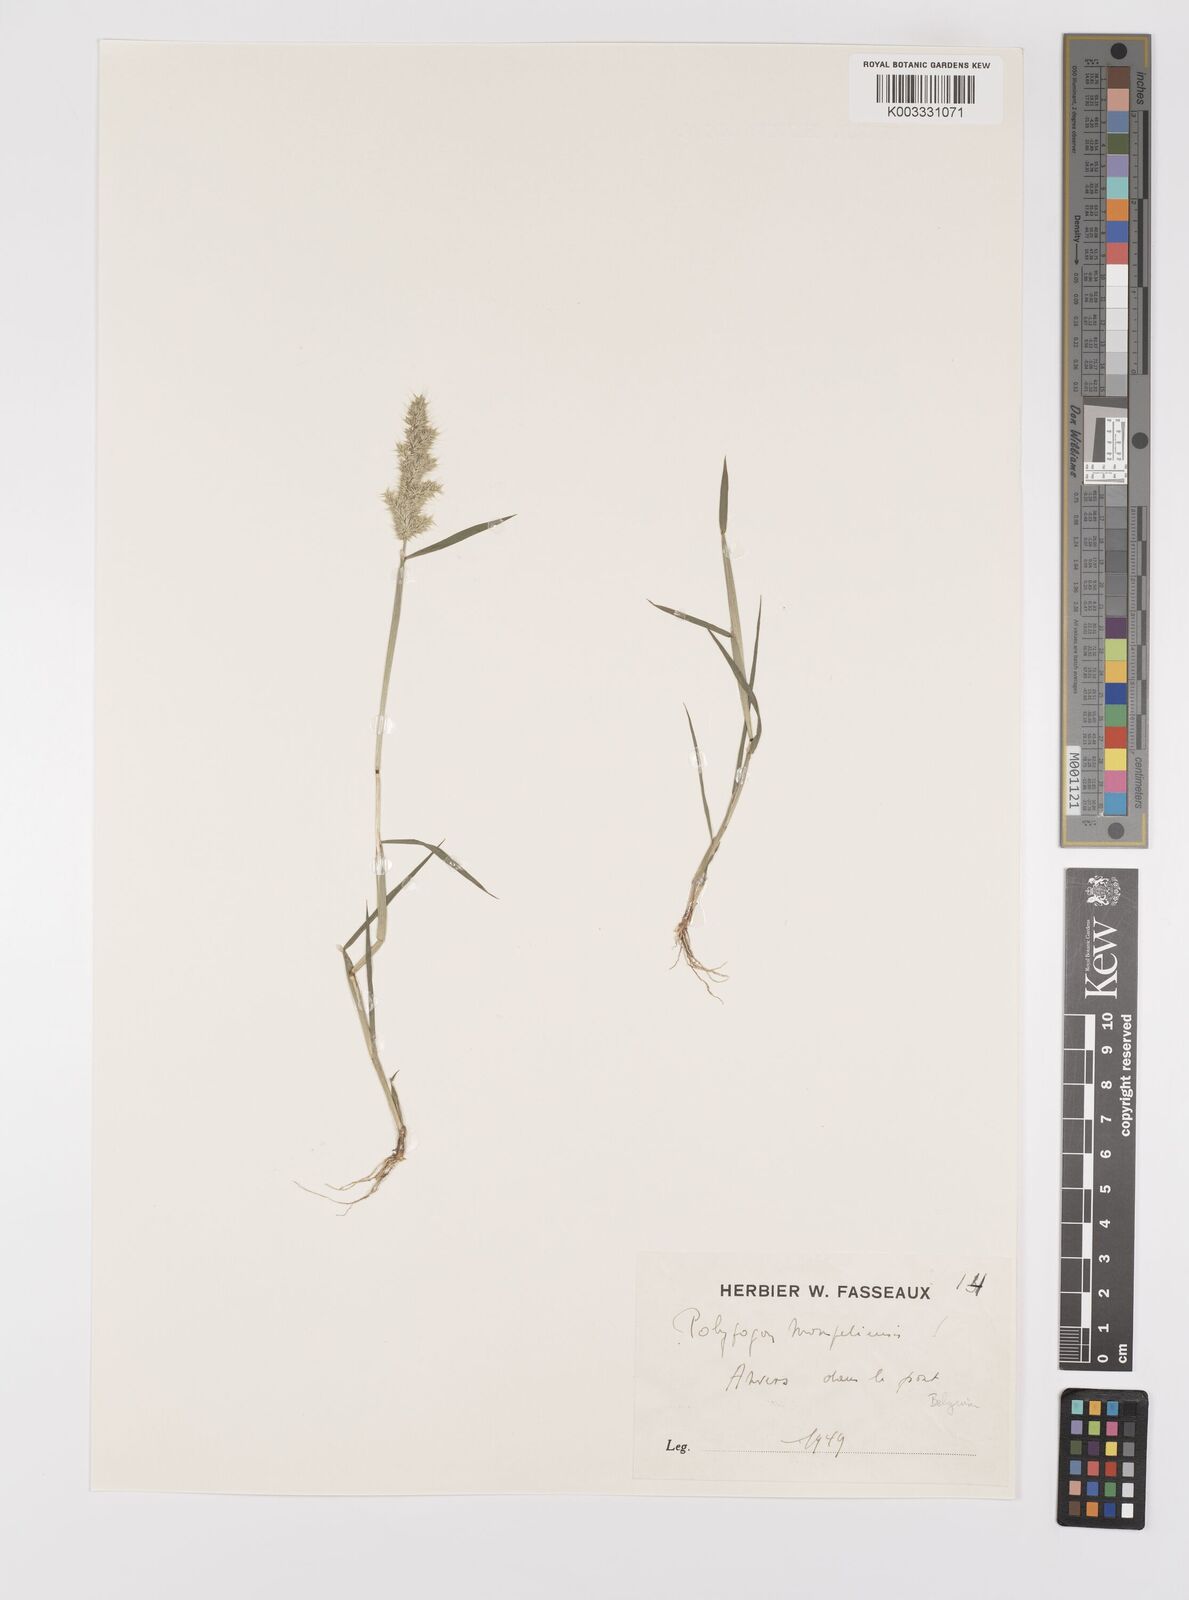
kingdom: Plantae
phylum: Tracheophyta
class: Liliopsida
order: Poales
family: Poaceae
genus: Polypogon
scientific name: Polypogon monspeliensis
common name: Annual rabbitsfoot grass
